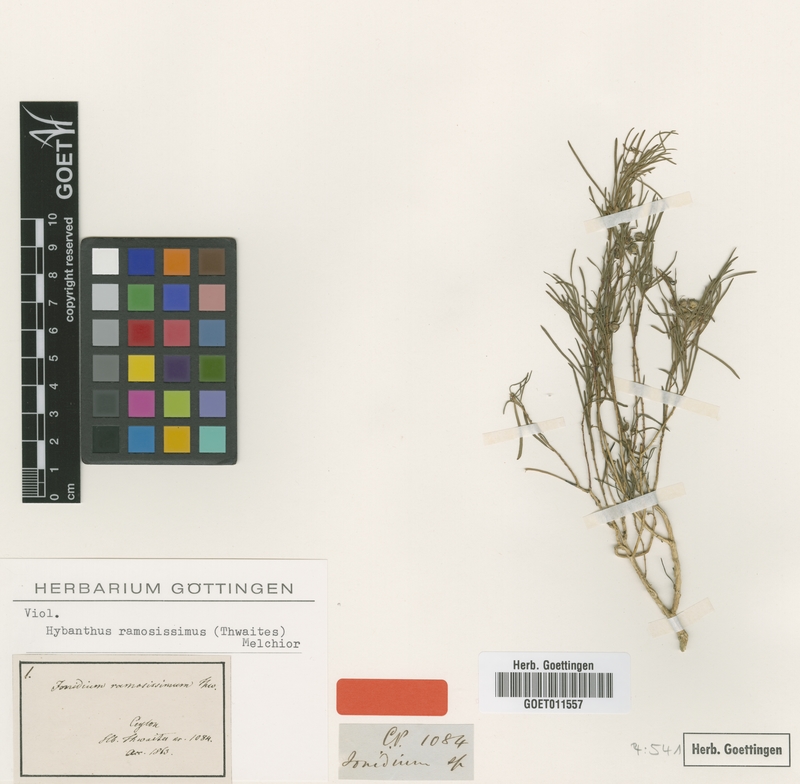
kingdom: Plantae
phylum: Tracheophyta
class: Magnoliopsida
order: Malpighiales
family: Violaceae
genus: Pigea
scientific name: Pigea ramosissima
